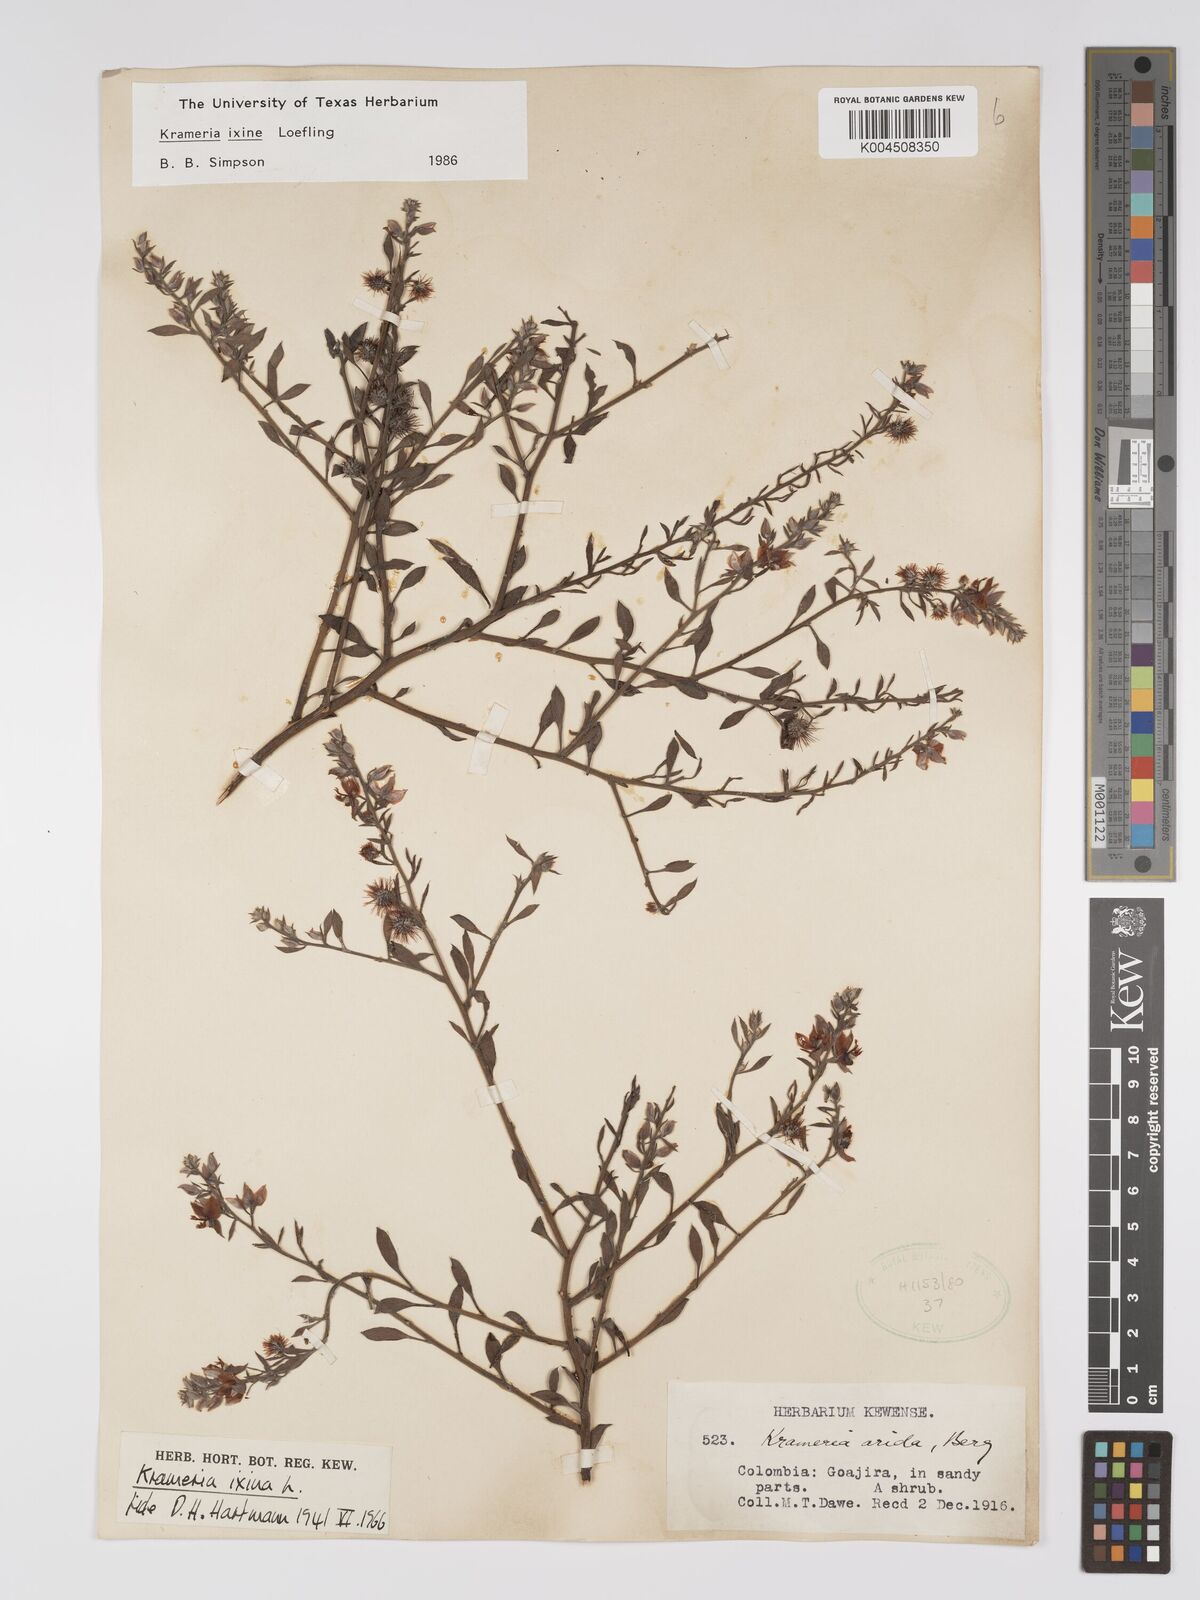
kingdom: Plantae
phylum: Tracheophyta
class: Magnoliopsida
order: Zygophyllales
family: Krameriaceae
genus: Krameria
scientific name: Krameria ixine
